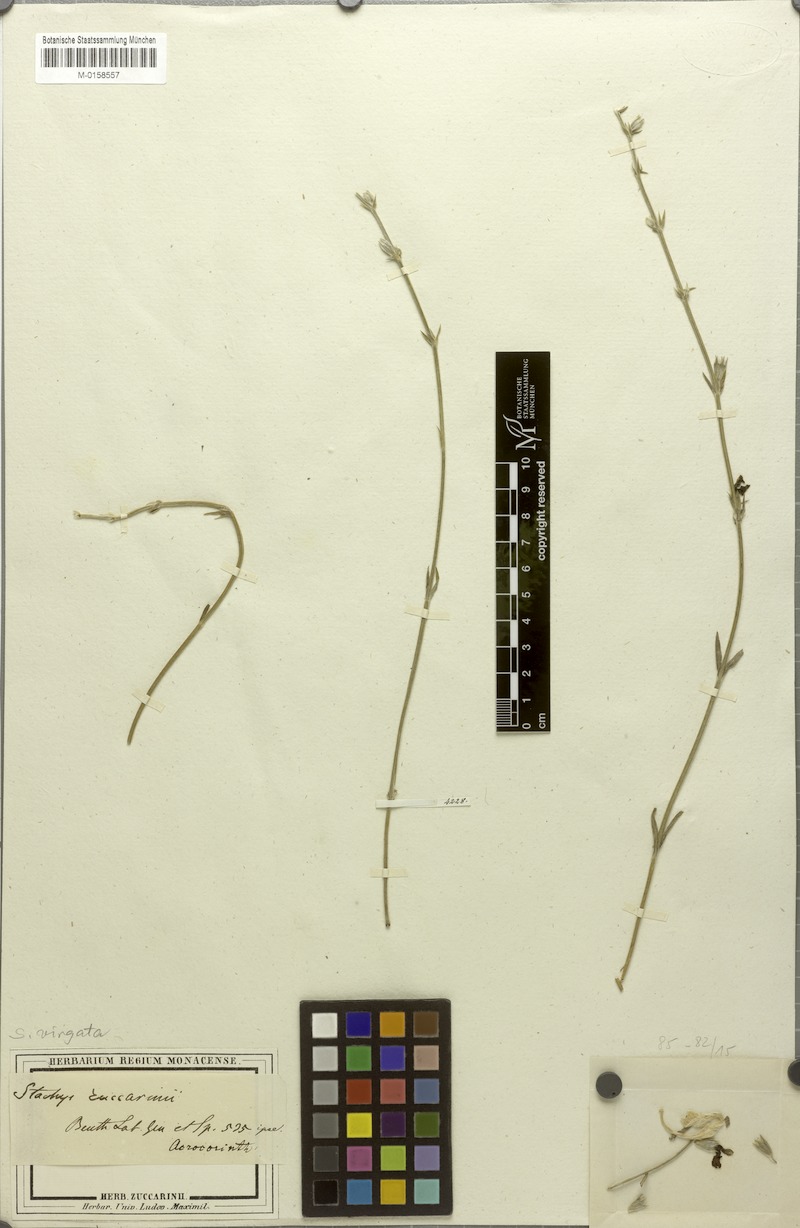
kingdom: Plantae
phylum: Tracheophyta
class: Magnoliopsida
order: Lamiales
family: Lamiaceae
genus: Stachys
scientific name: Stachys virgata
